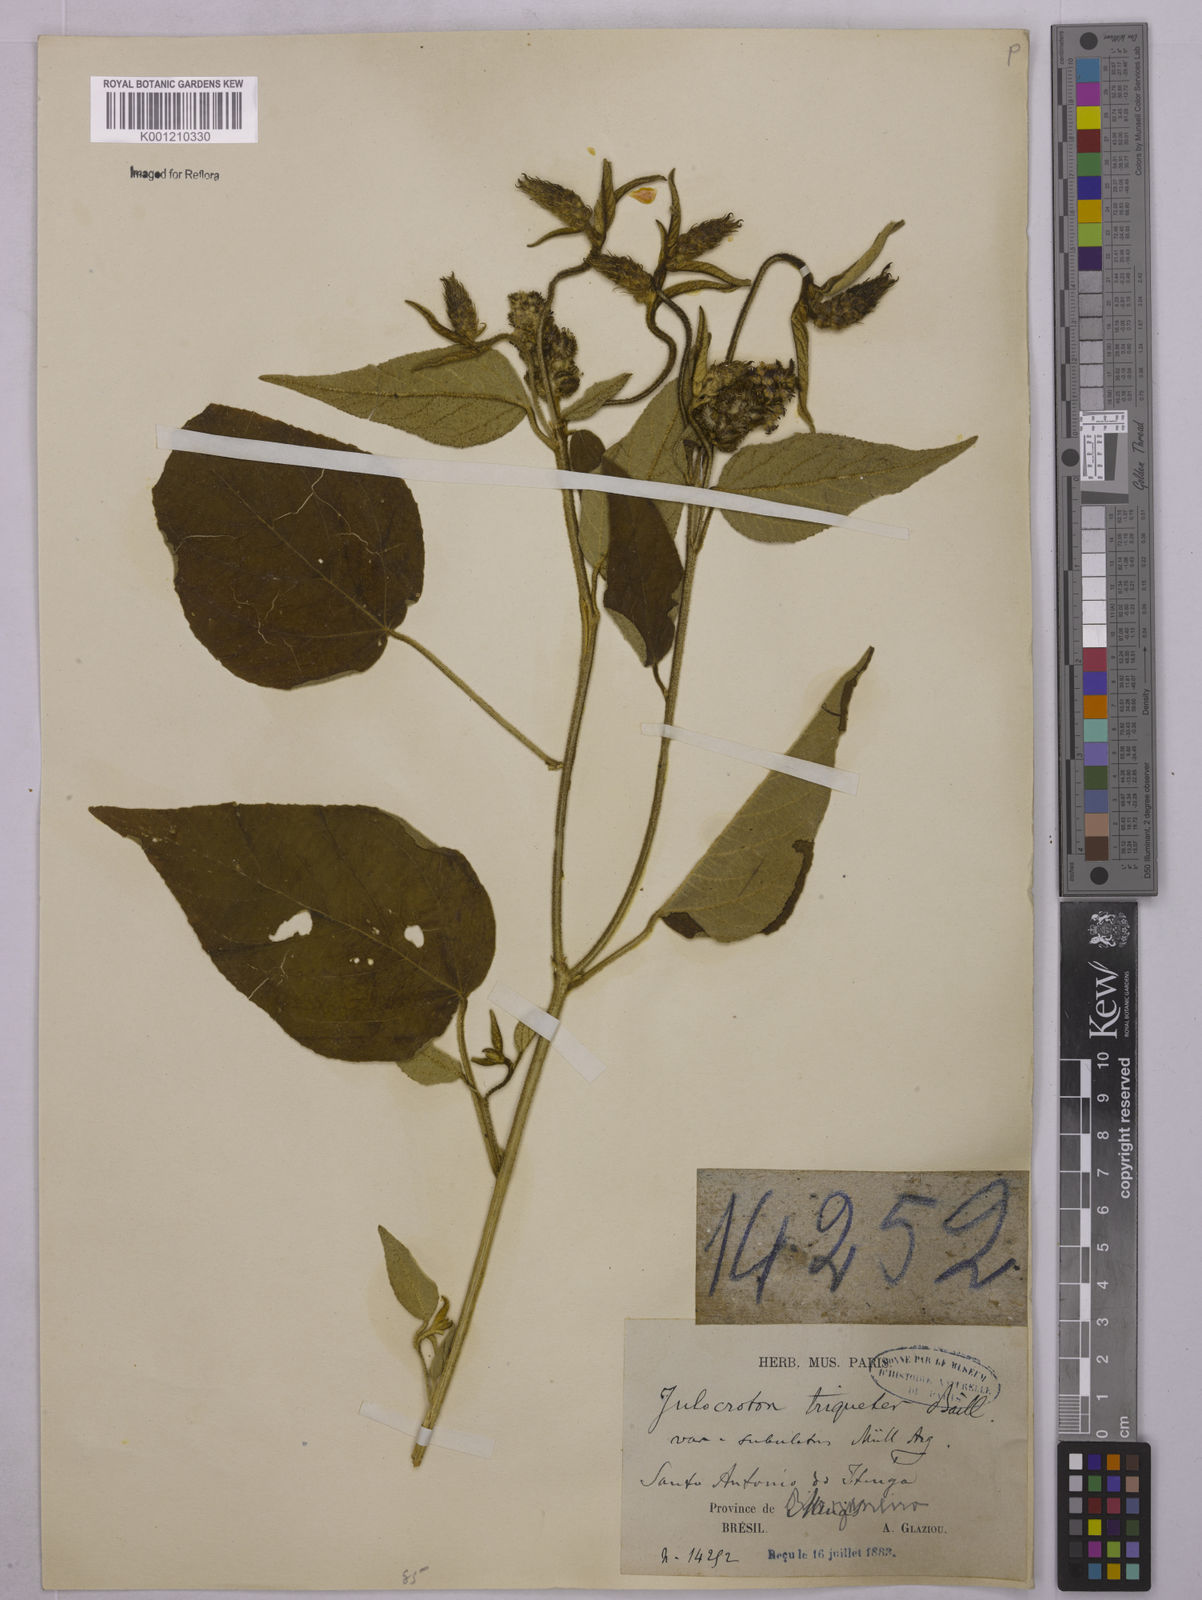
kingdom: Plantae
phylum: Tracheophyta
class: Magnoliopsida
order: Malpighiales
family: Euphorbiaceae
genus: Croton
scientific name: Croton gnaphaloides
